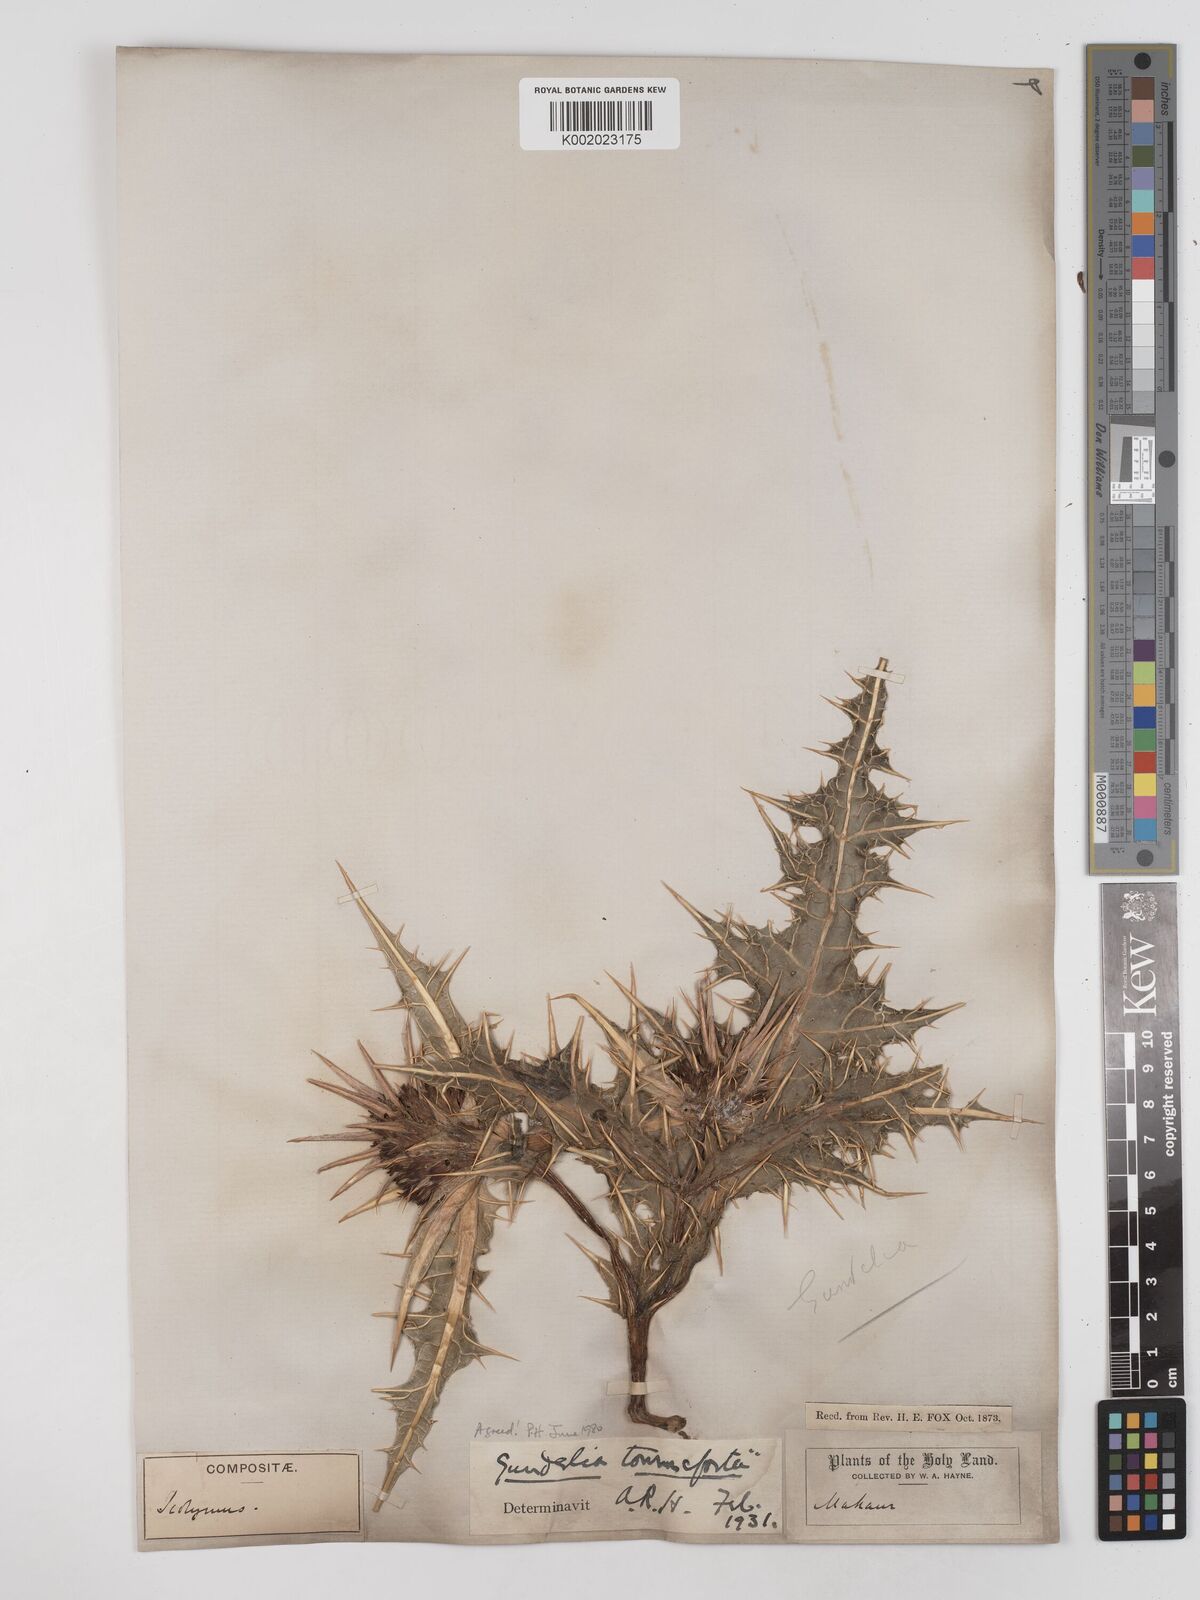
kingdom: Plantae
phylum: Tracheophyta
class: Magnoliopsida
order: Asterales
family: Asteraceae
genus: Gundelia
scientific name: Gundelia tournefortii
